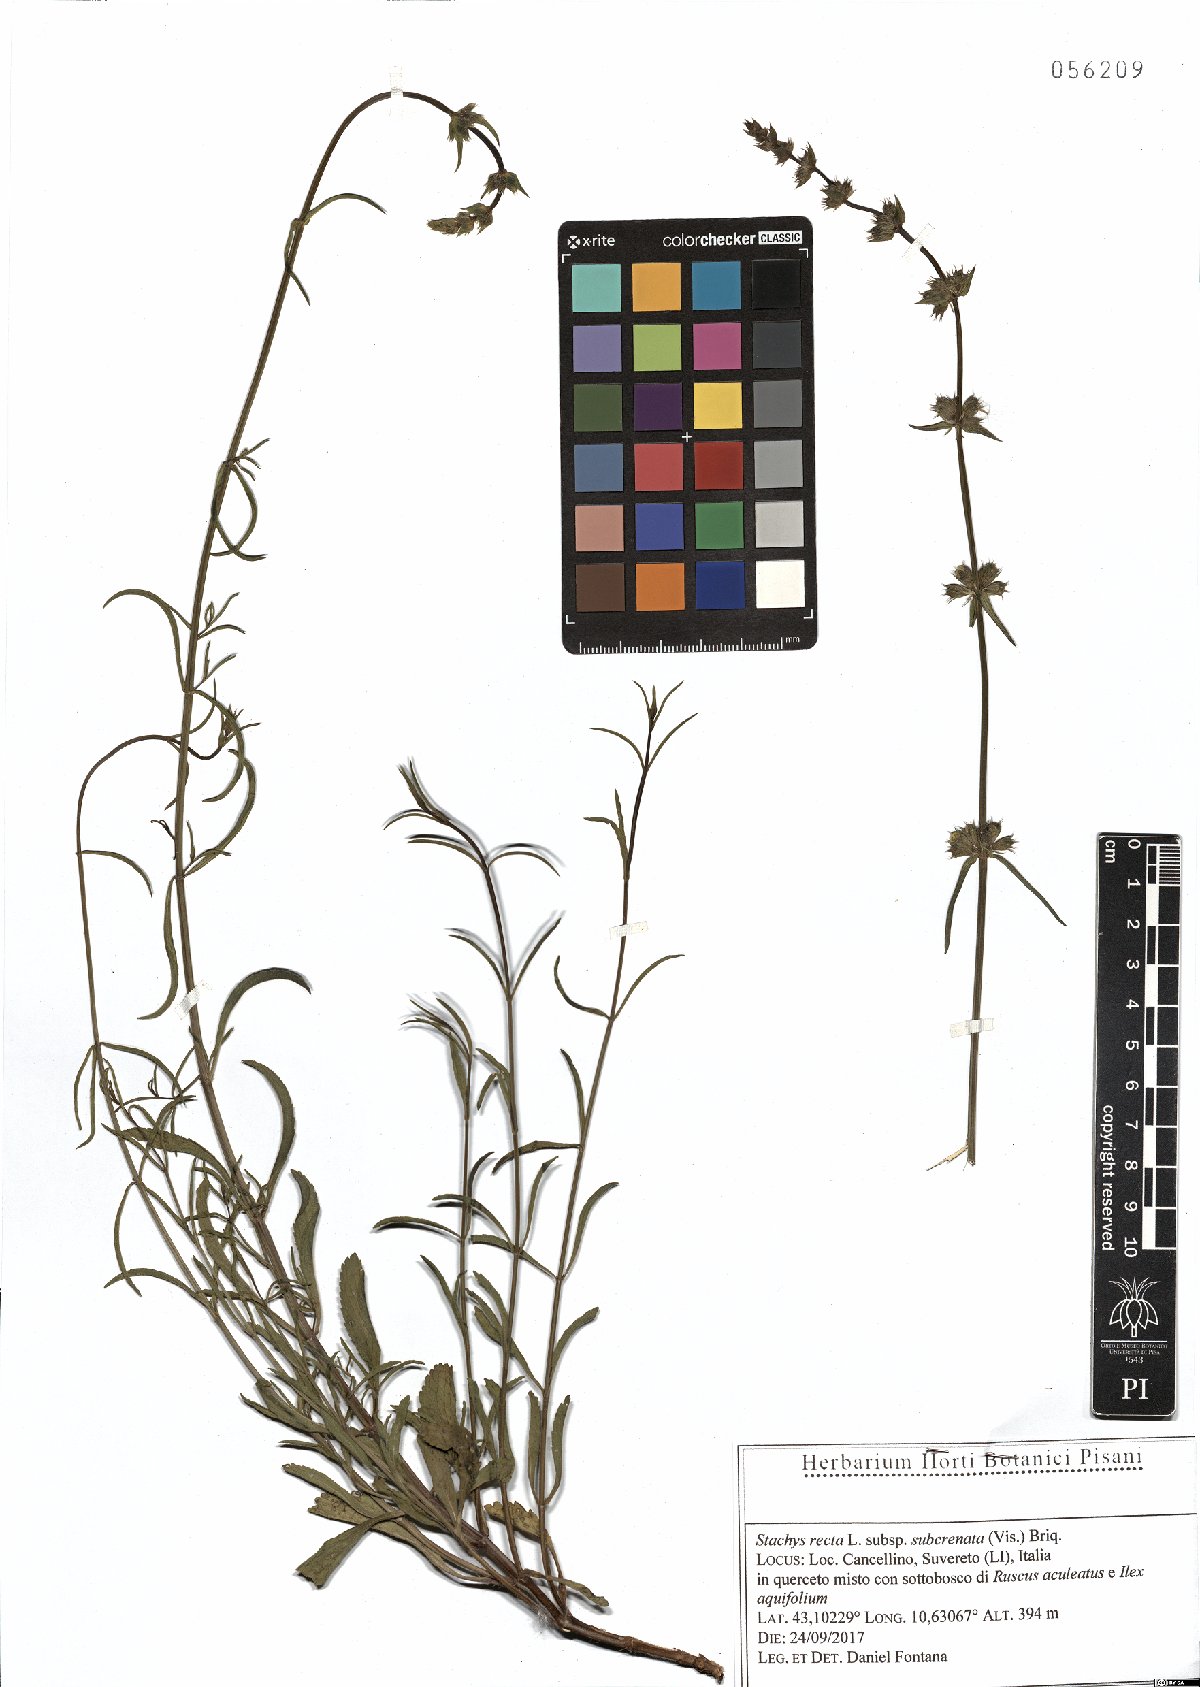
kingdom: Plantae
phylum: Tracheophyta
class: Magnoliopsida
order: Lamiales
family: Lamiaceae
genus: Stachys
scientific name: Stachys recta
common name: Perennial yellow-woundwort
